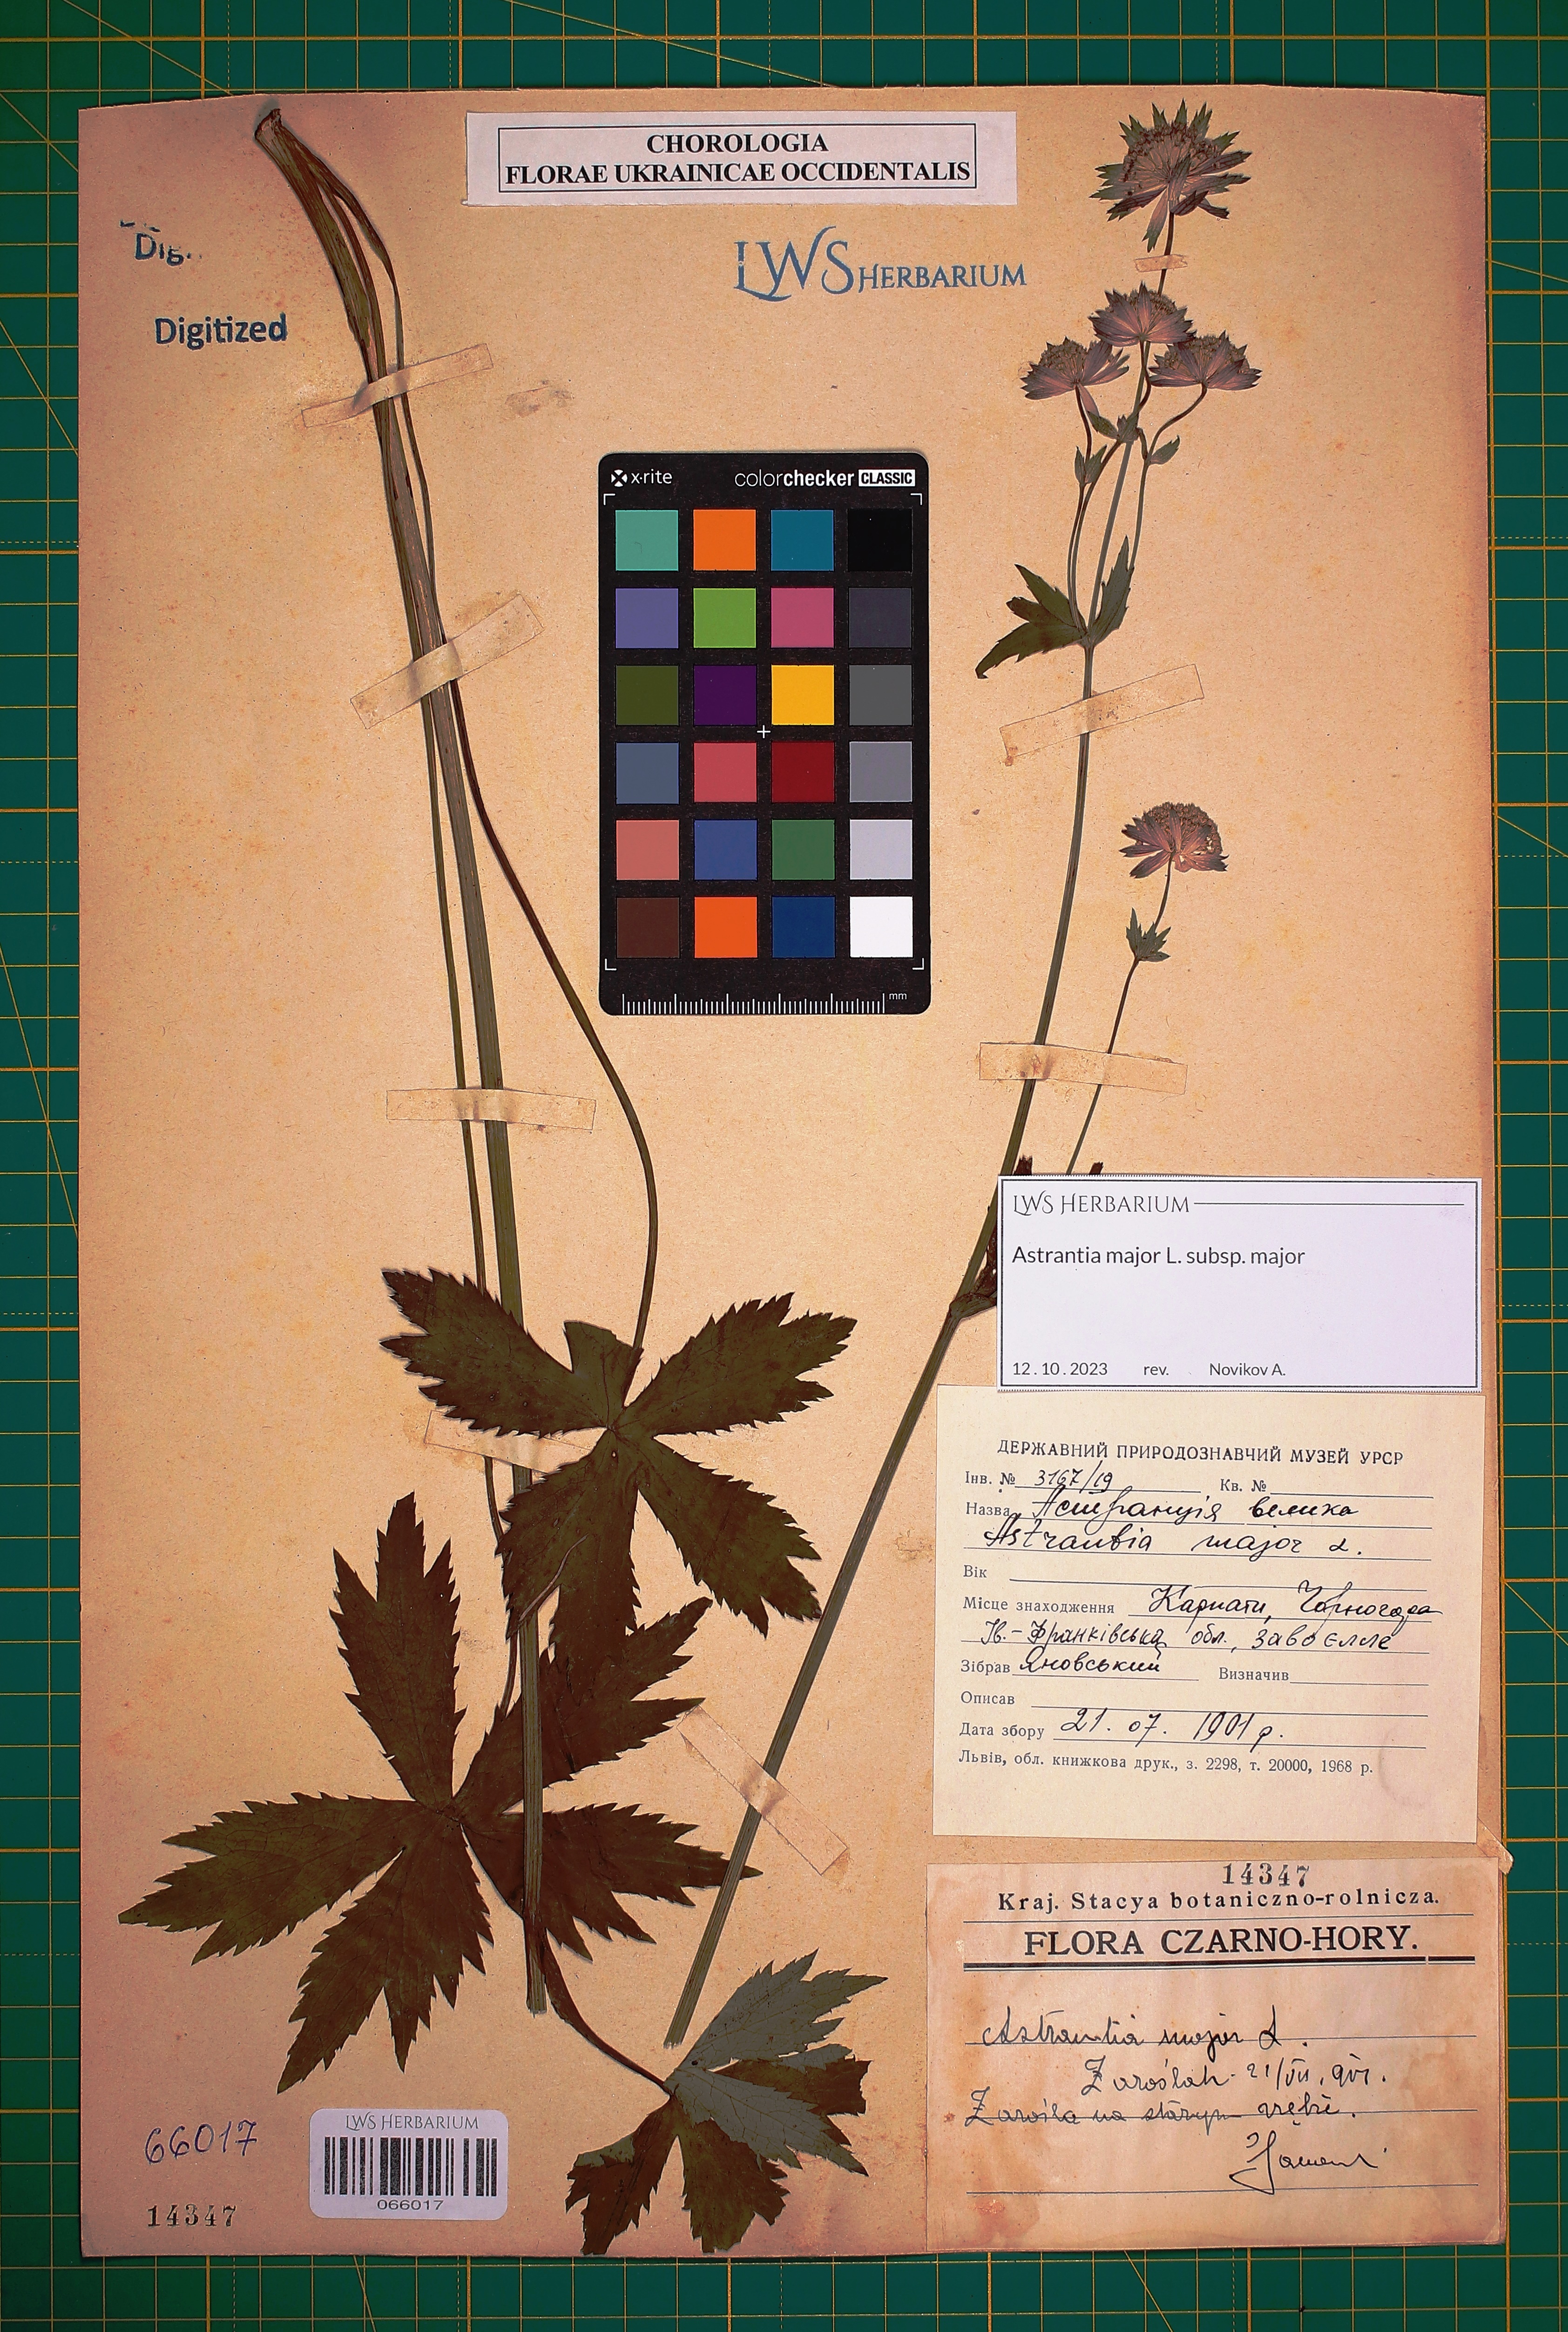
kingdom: Plantae
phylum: Tracheophyta
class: Magnoliopsida
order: Apiales
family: Apiaceae
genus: Astrantia
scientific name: Astrantia major
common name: Greater masterwort
